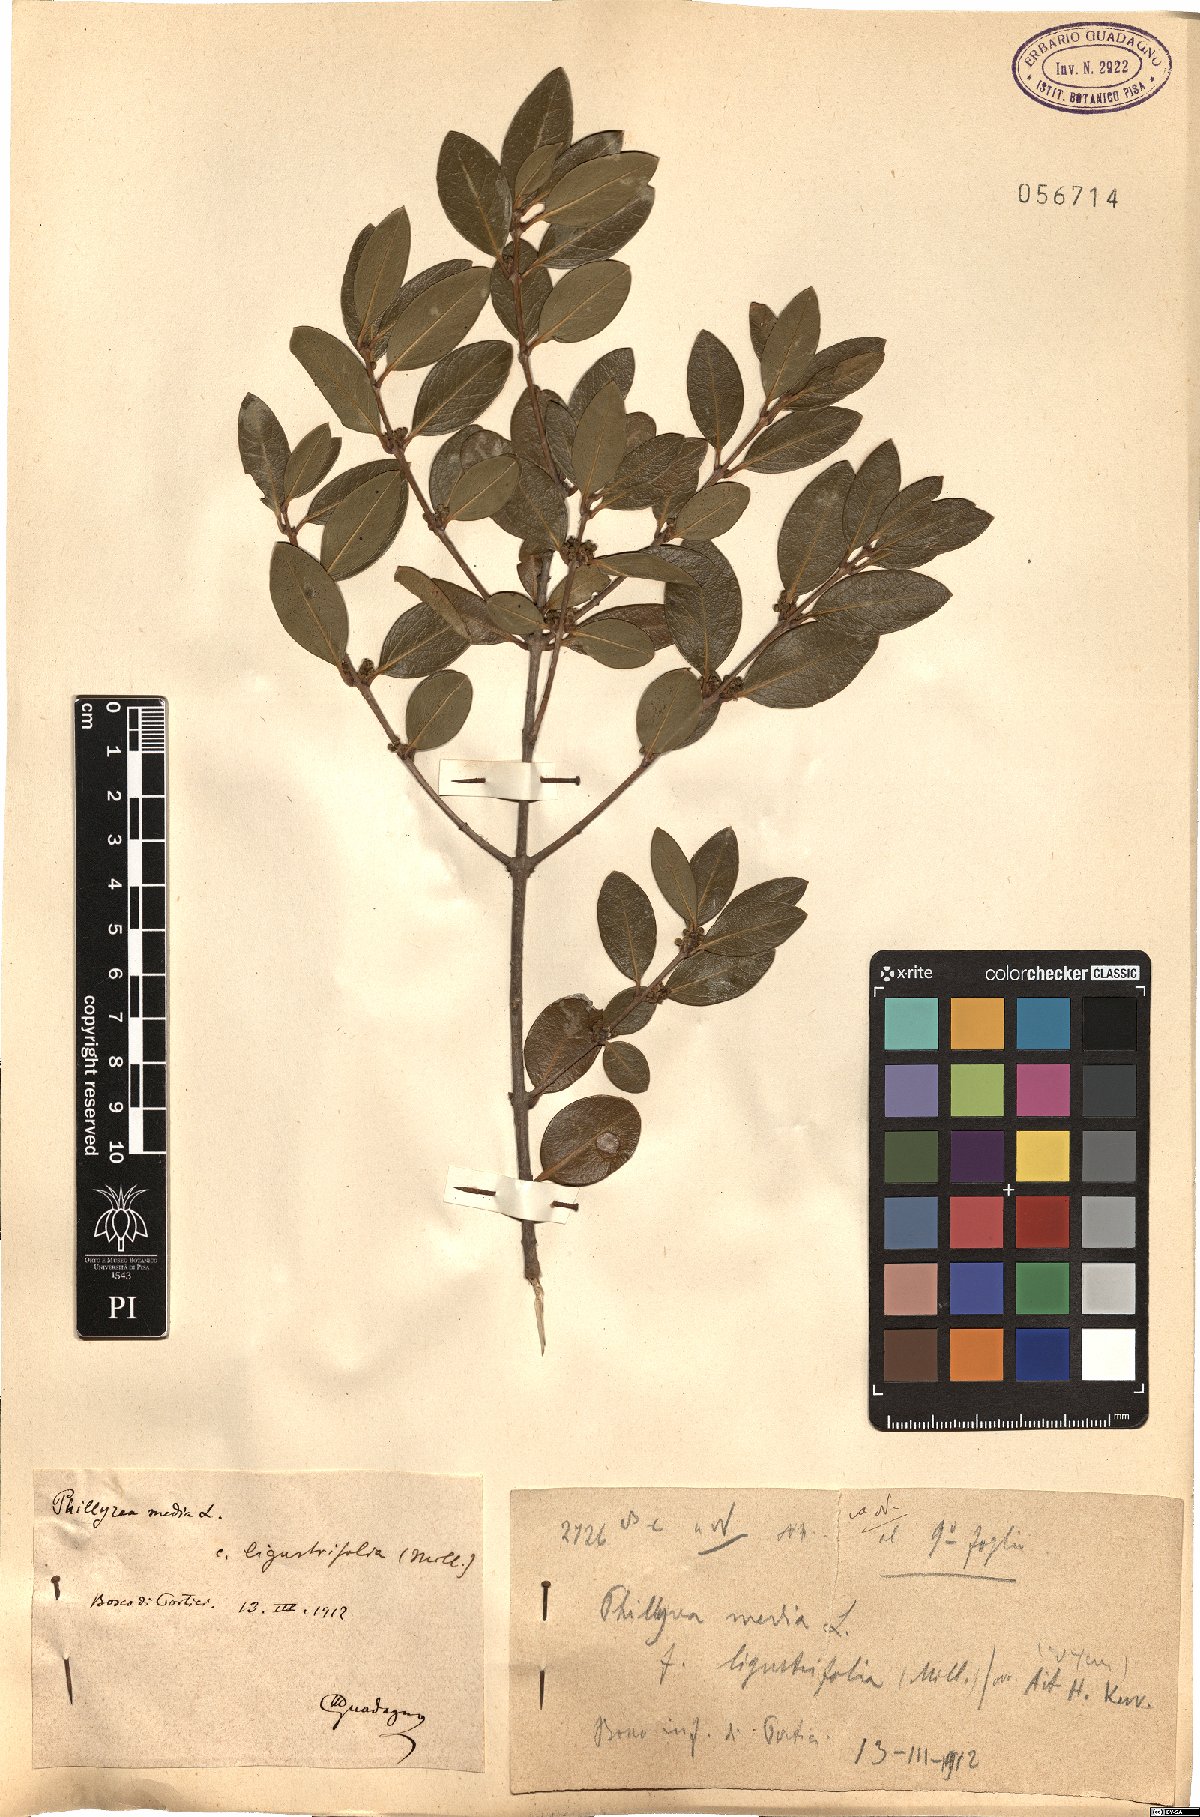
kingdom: Plantae
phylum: Tracheophyta
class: Magnoliopsida
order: Lamiales
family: Oleaceae
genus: Phillyrea
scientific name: Phillyrea latifolia
